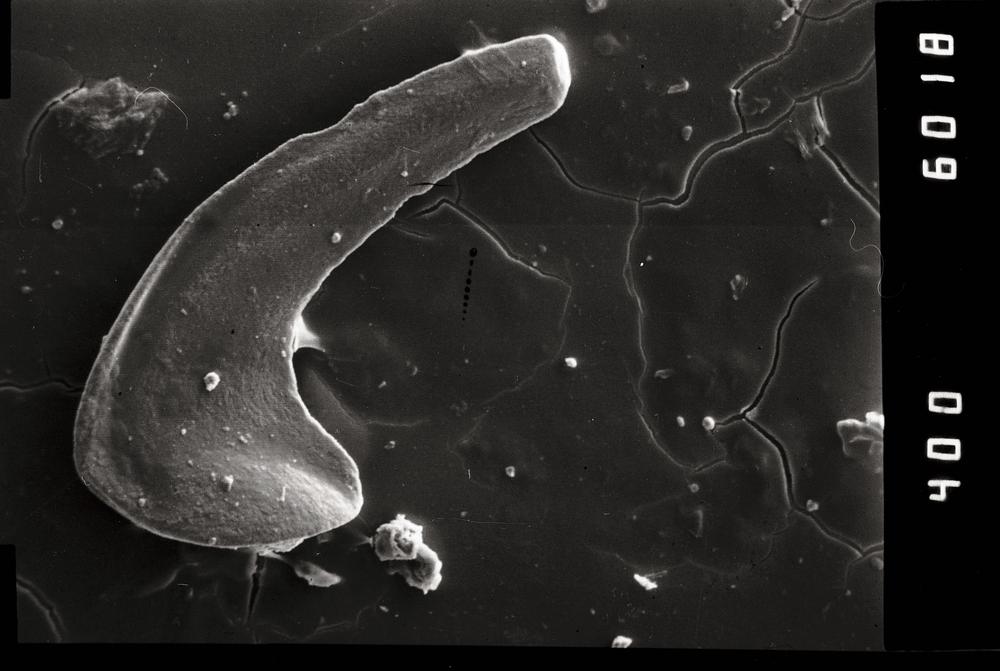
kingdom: Animalia
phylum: Chordata
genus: Paroistodus
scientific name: Paroistodus Drepanodus proteus
